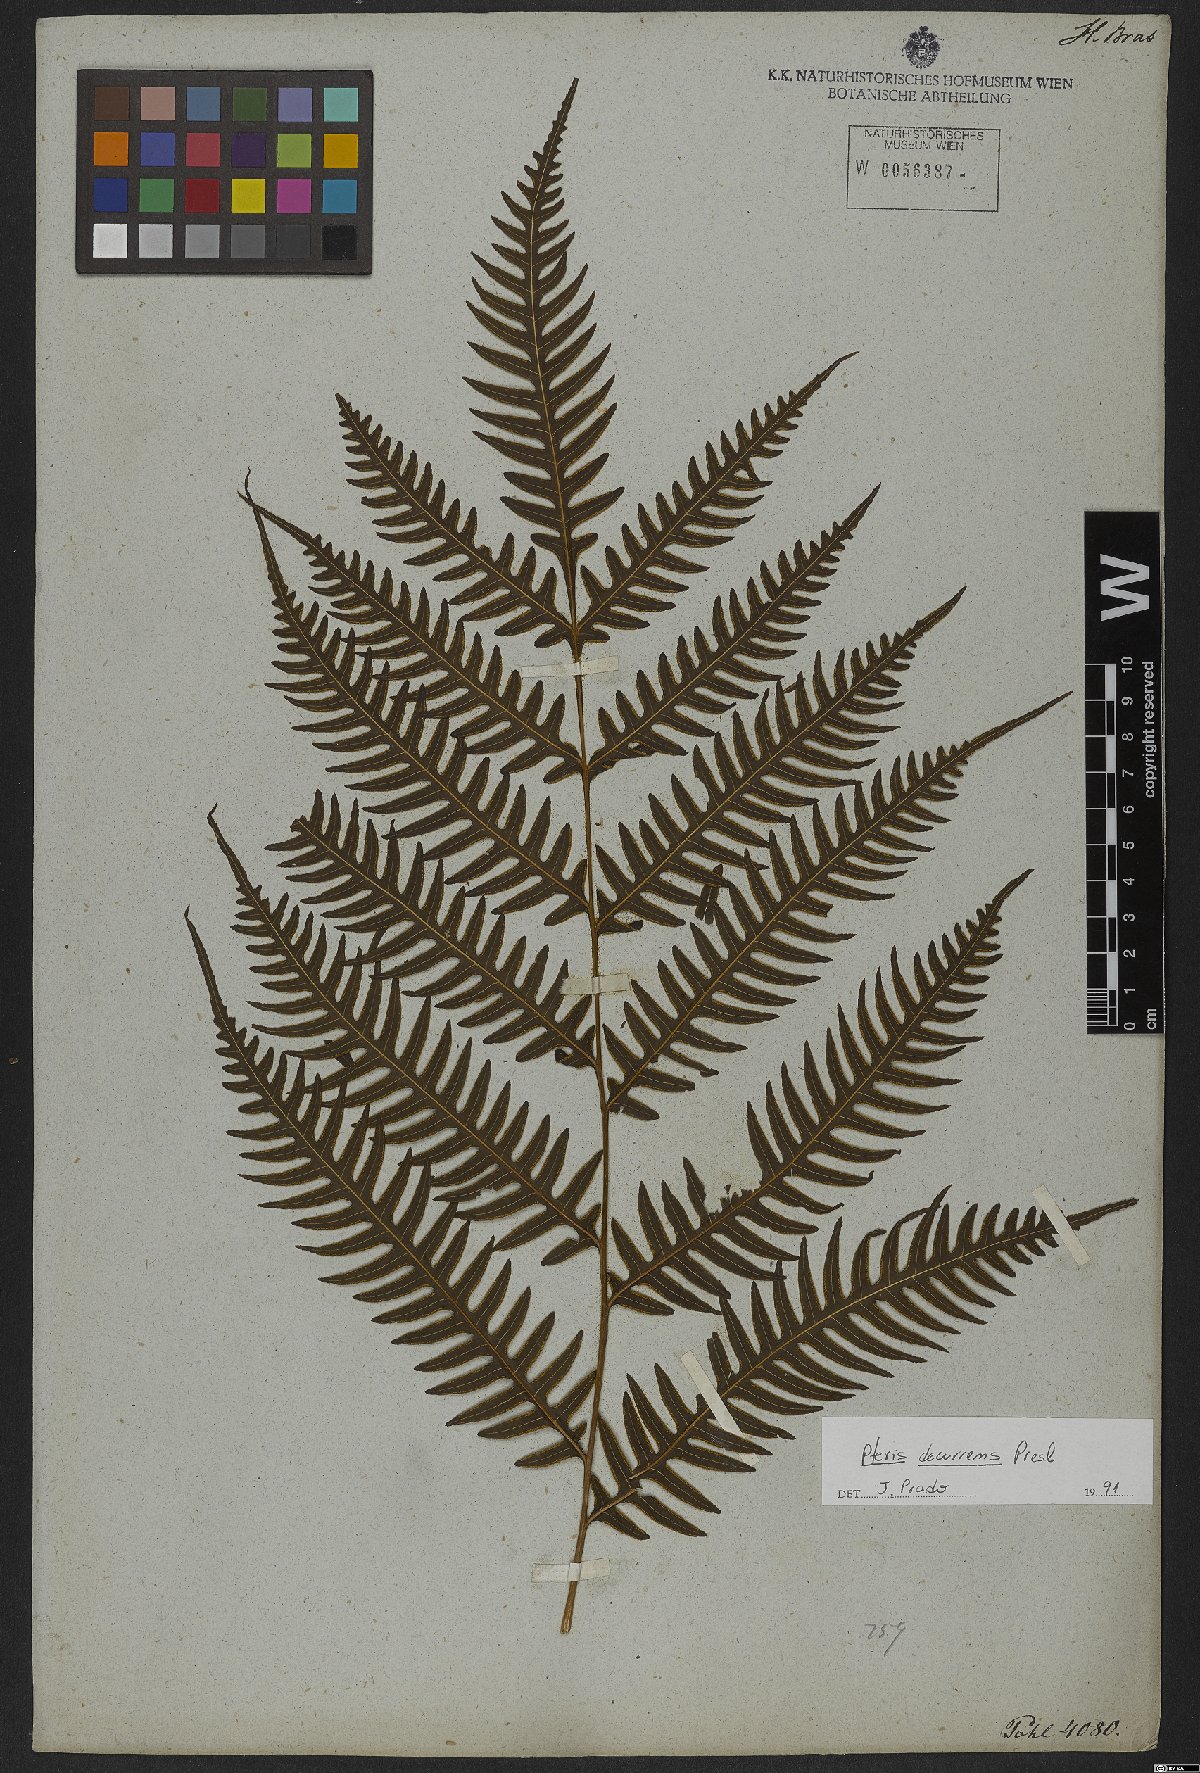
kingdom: Plantae
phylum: Tracheophyta
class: Polypodiopsida
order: Polypodiales
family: Pteridaceae
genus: Pteris
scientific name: Pteris decurrens
